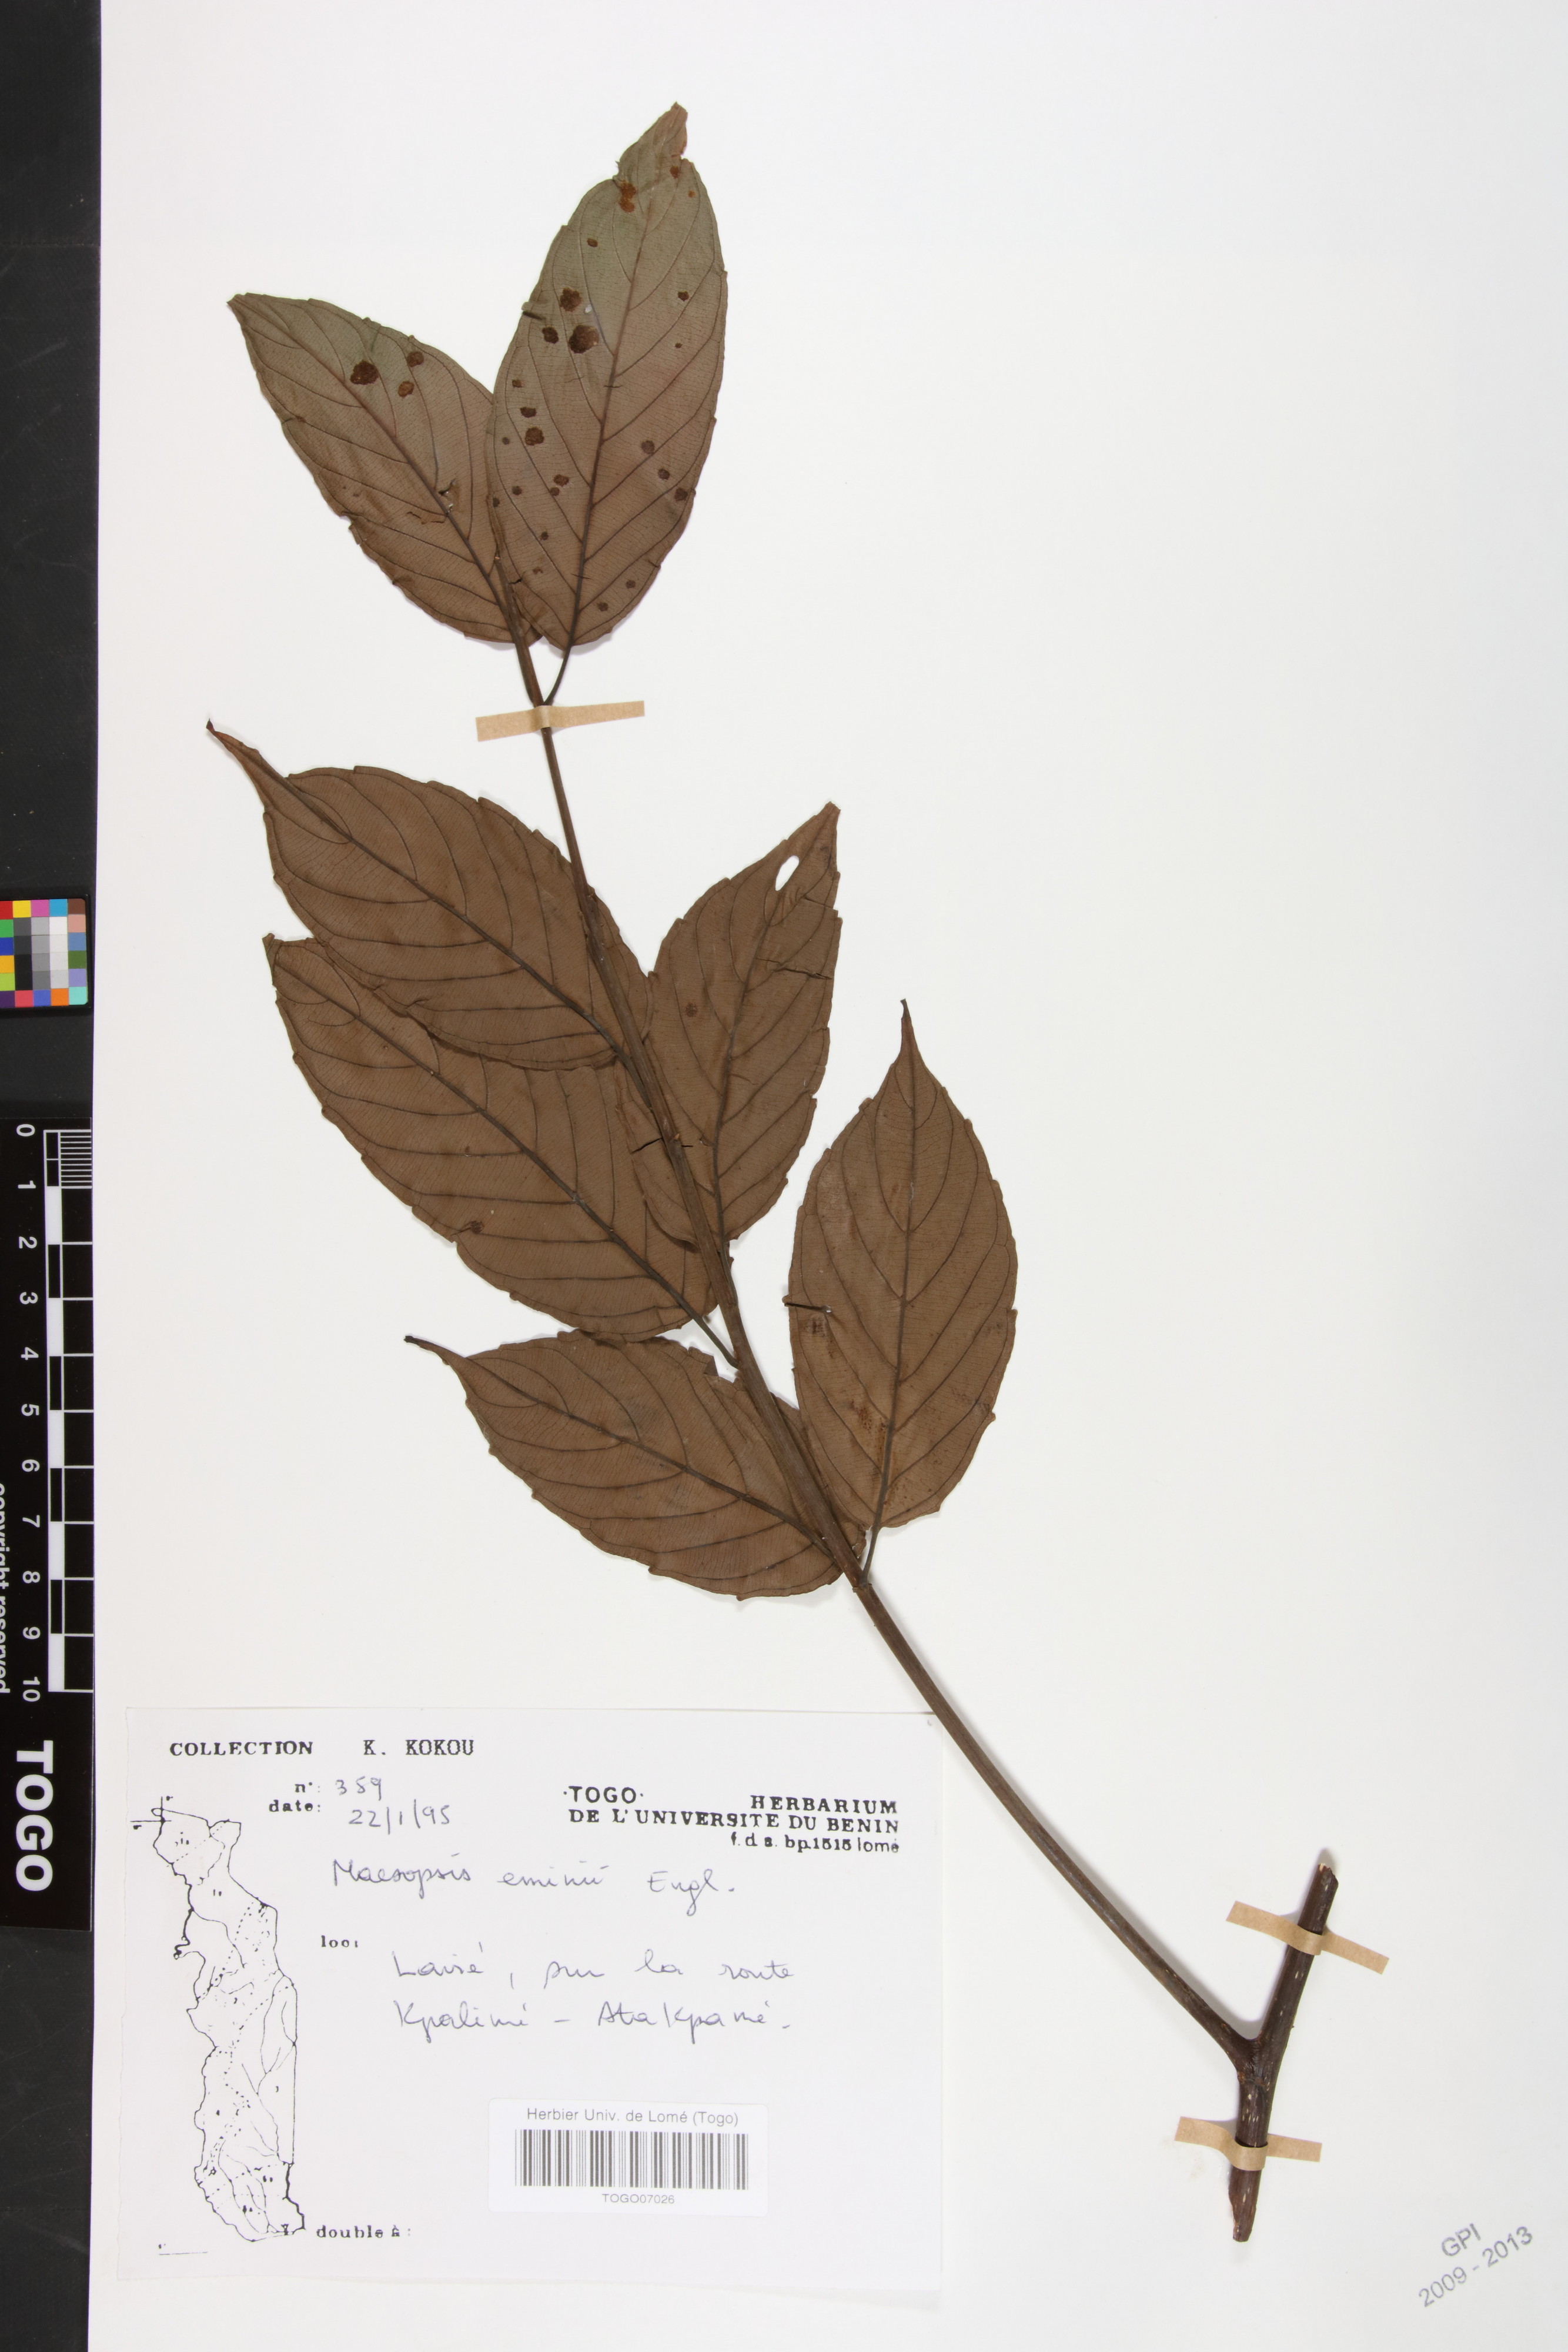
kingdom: Plantae
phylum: Tracheophyta
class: Magnoliopsida
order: Rosales
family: Rhamnaceae
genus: Maesopsis
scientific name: Maesopsis eminii
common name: Umbrella tree
